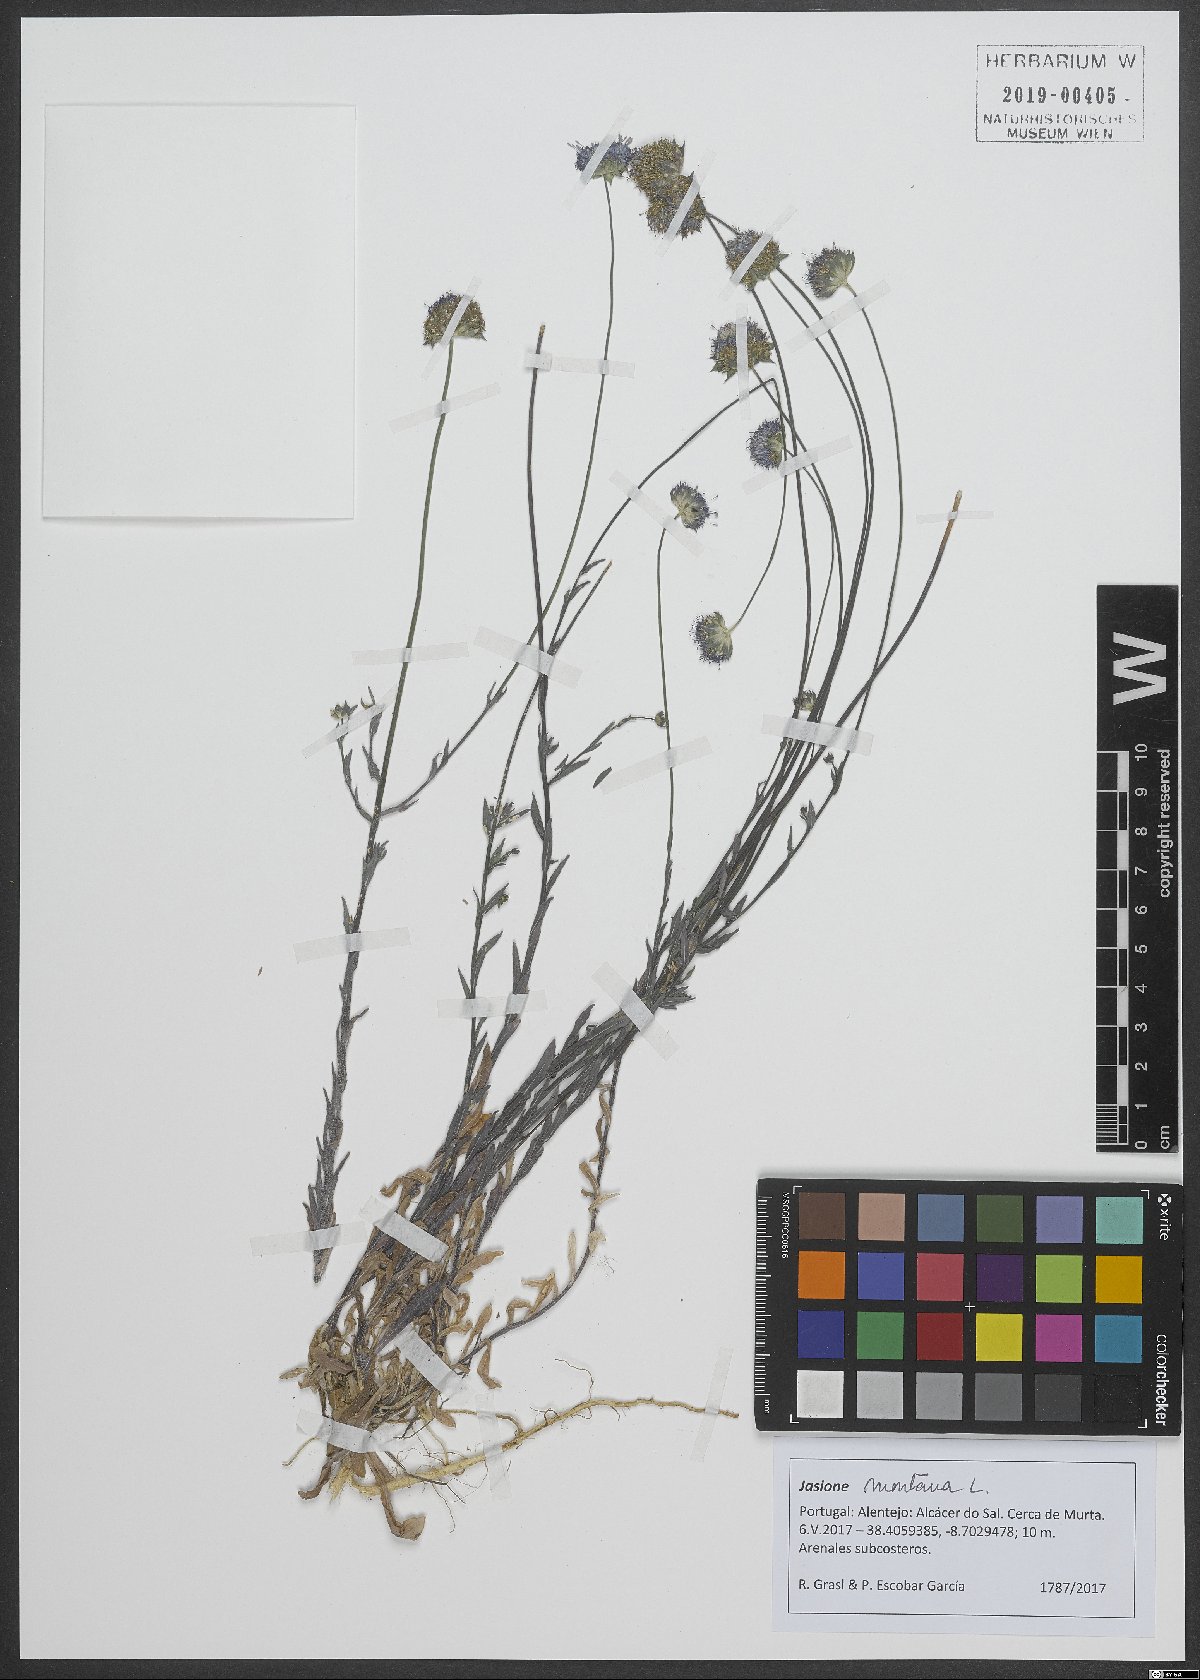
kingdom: Plantae
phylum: Tracheophyta
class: Magnoliopsida
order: Asterales
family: Campanulaceae
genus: Jasione
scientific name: Jasione montana
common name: Sheep's-bit
